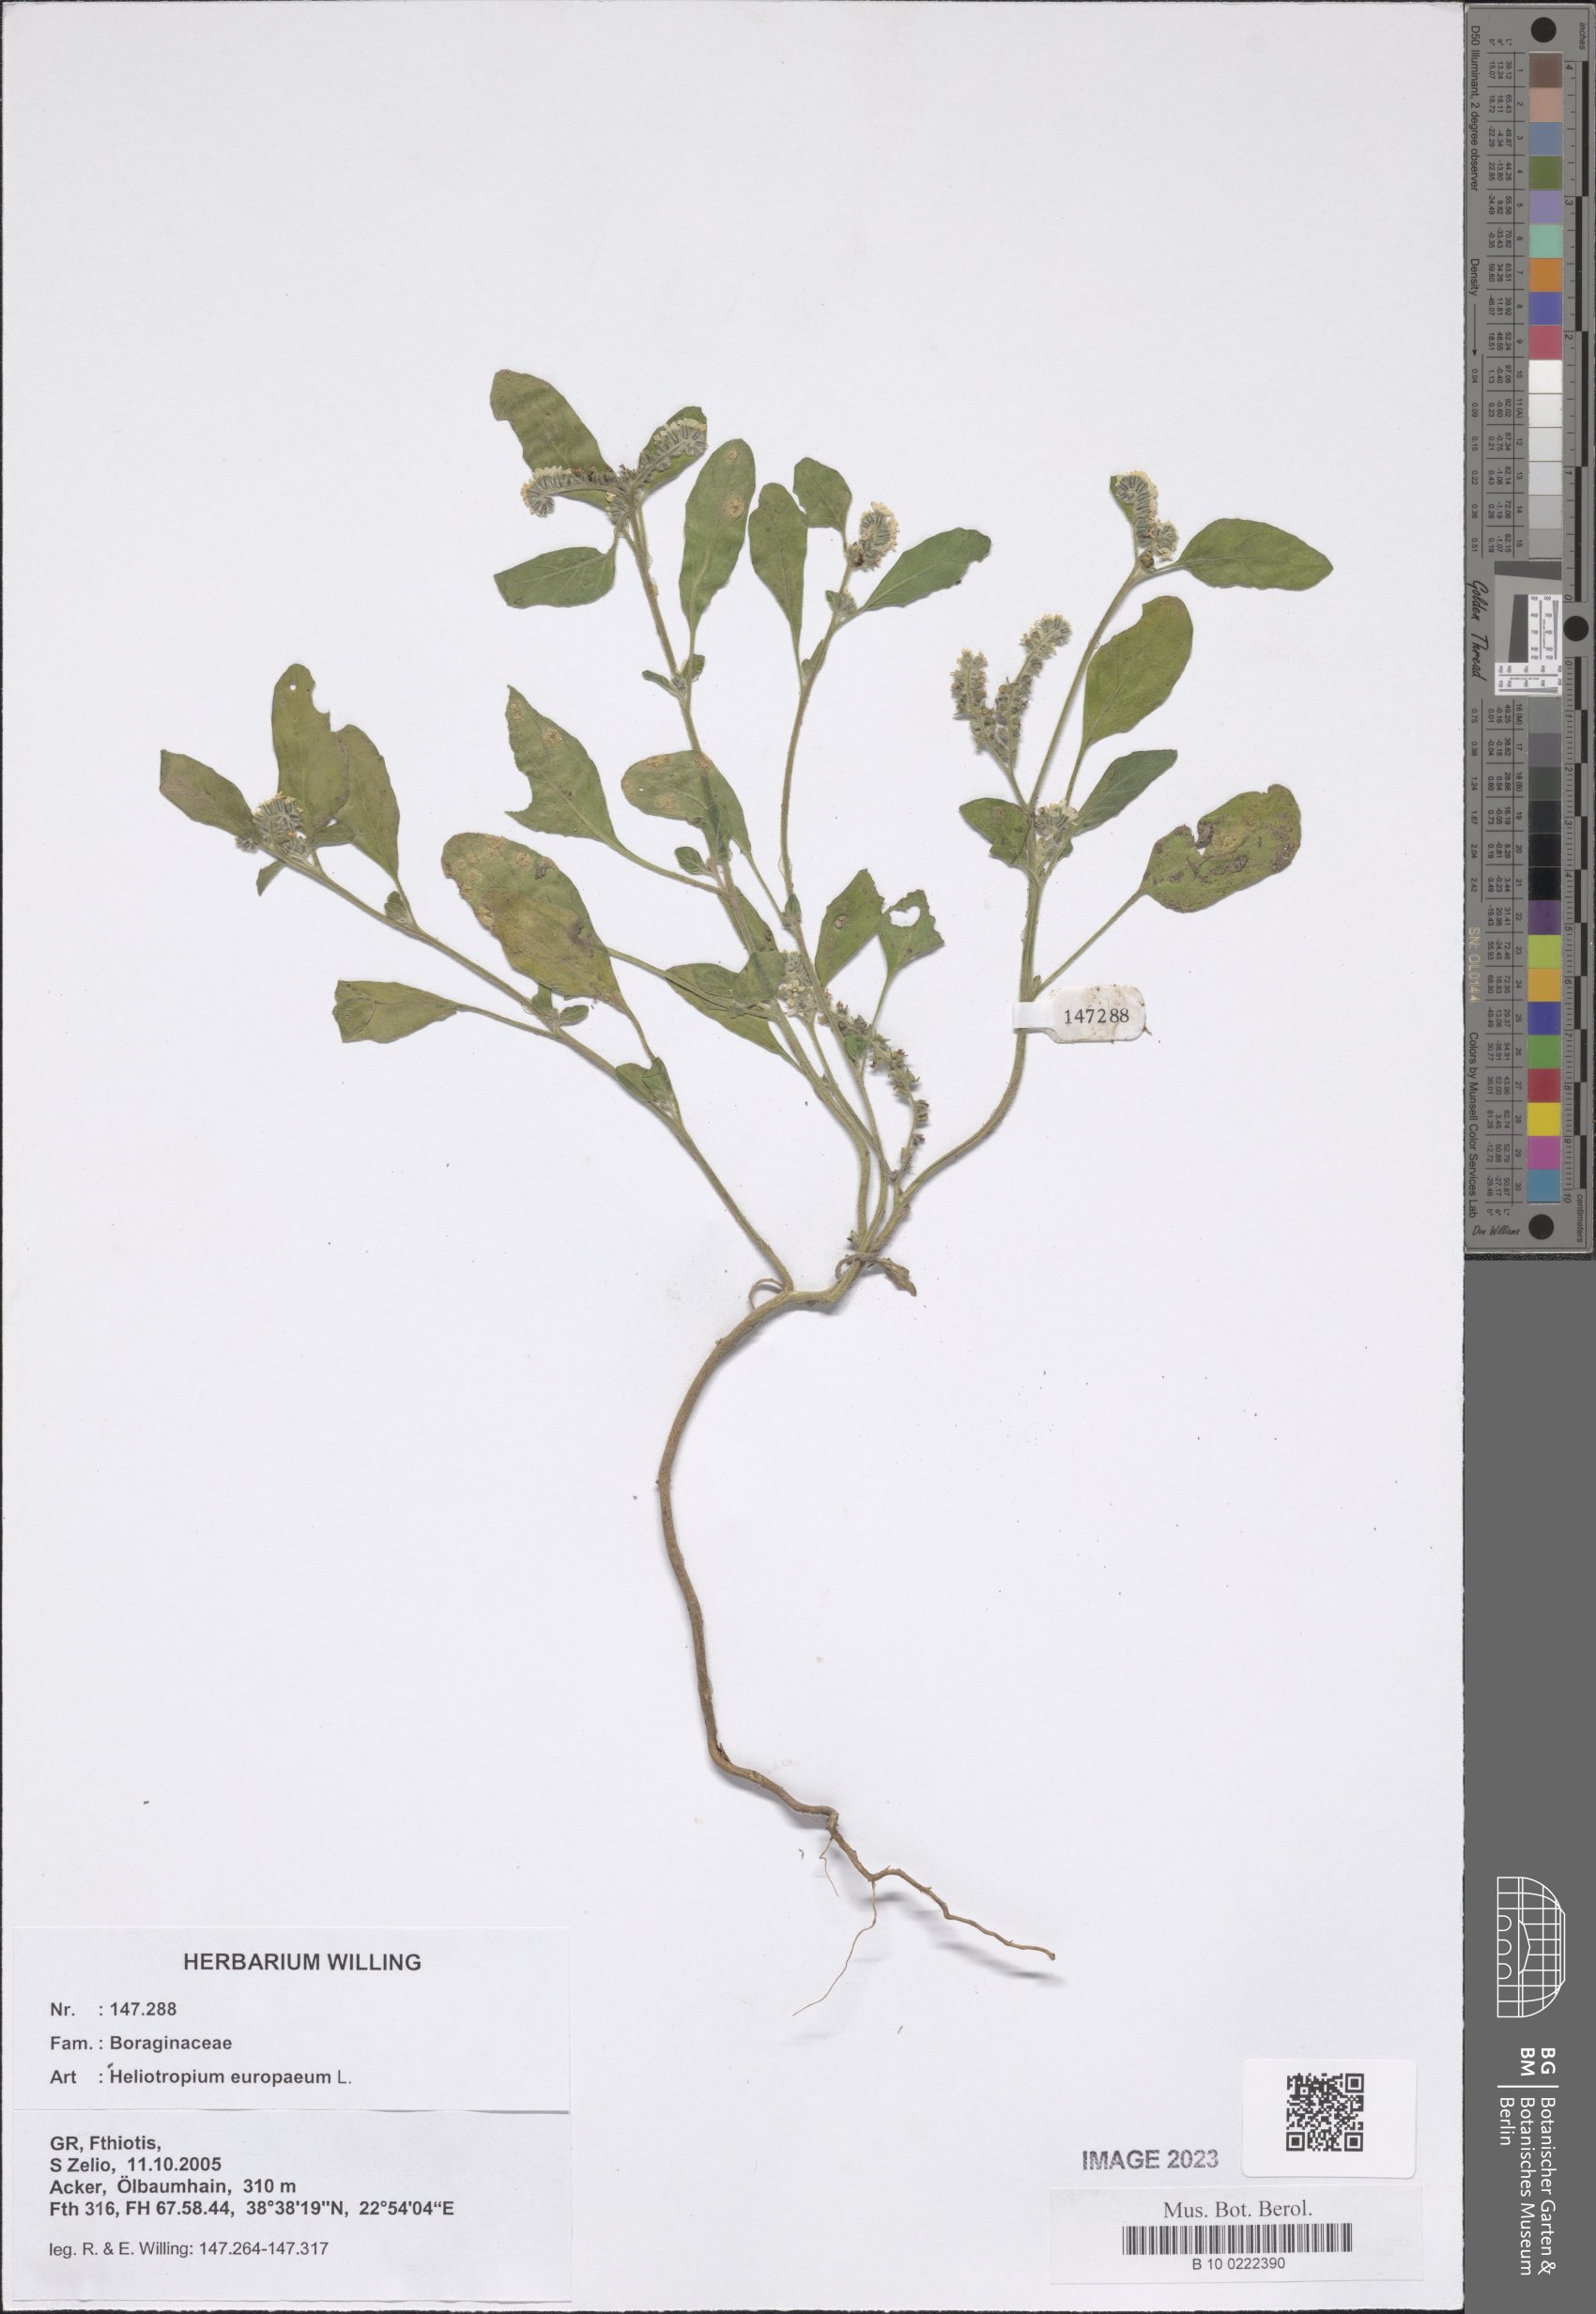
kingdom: Plantae
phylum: Tracheophyta
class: Magnoliopsida
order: Boraginales
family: Heliotropiaceae
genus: Heliotropium
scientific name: Heliotropium europaeum
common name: European heliotrope
